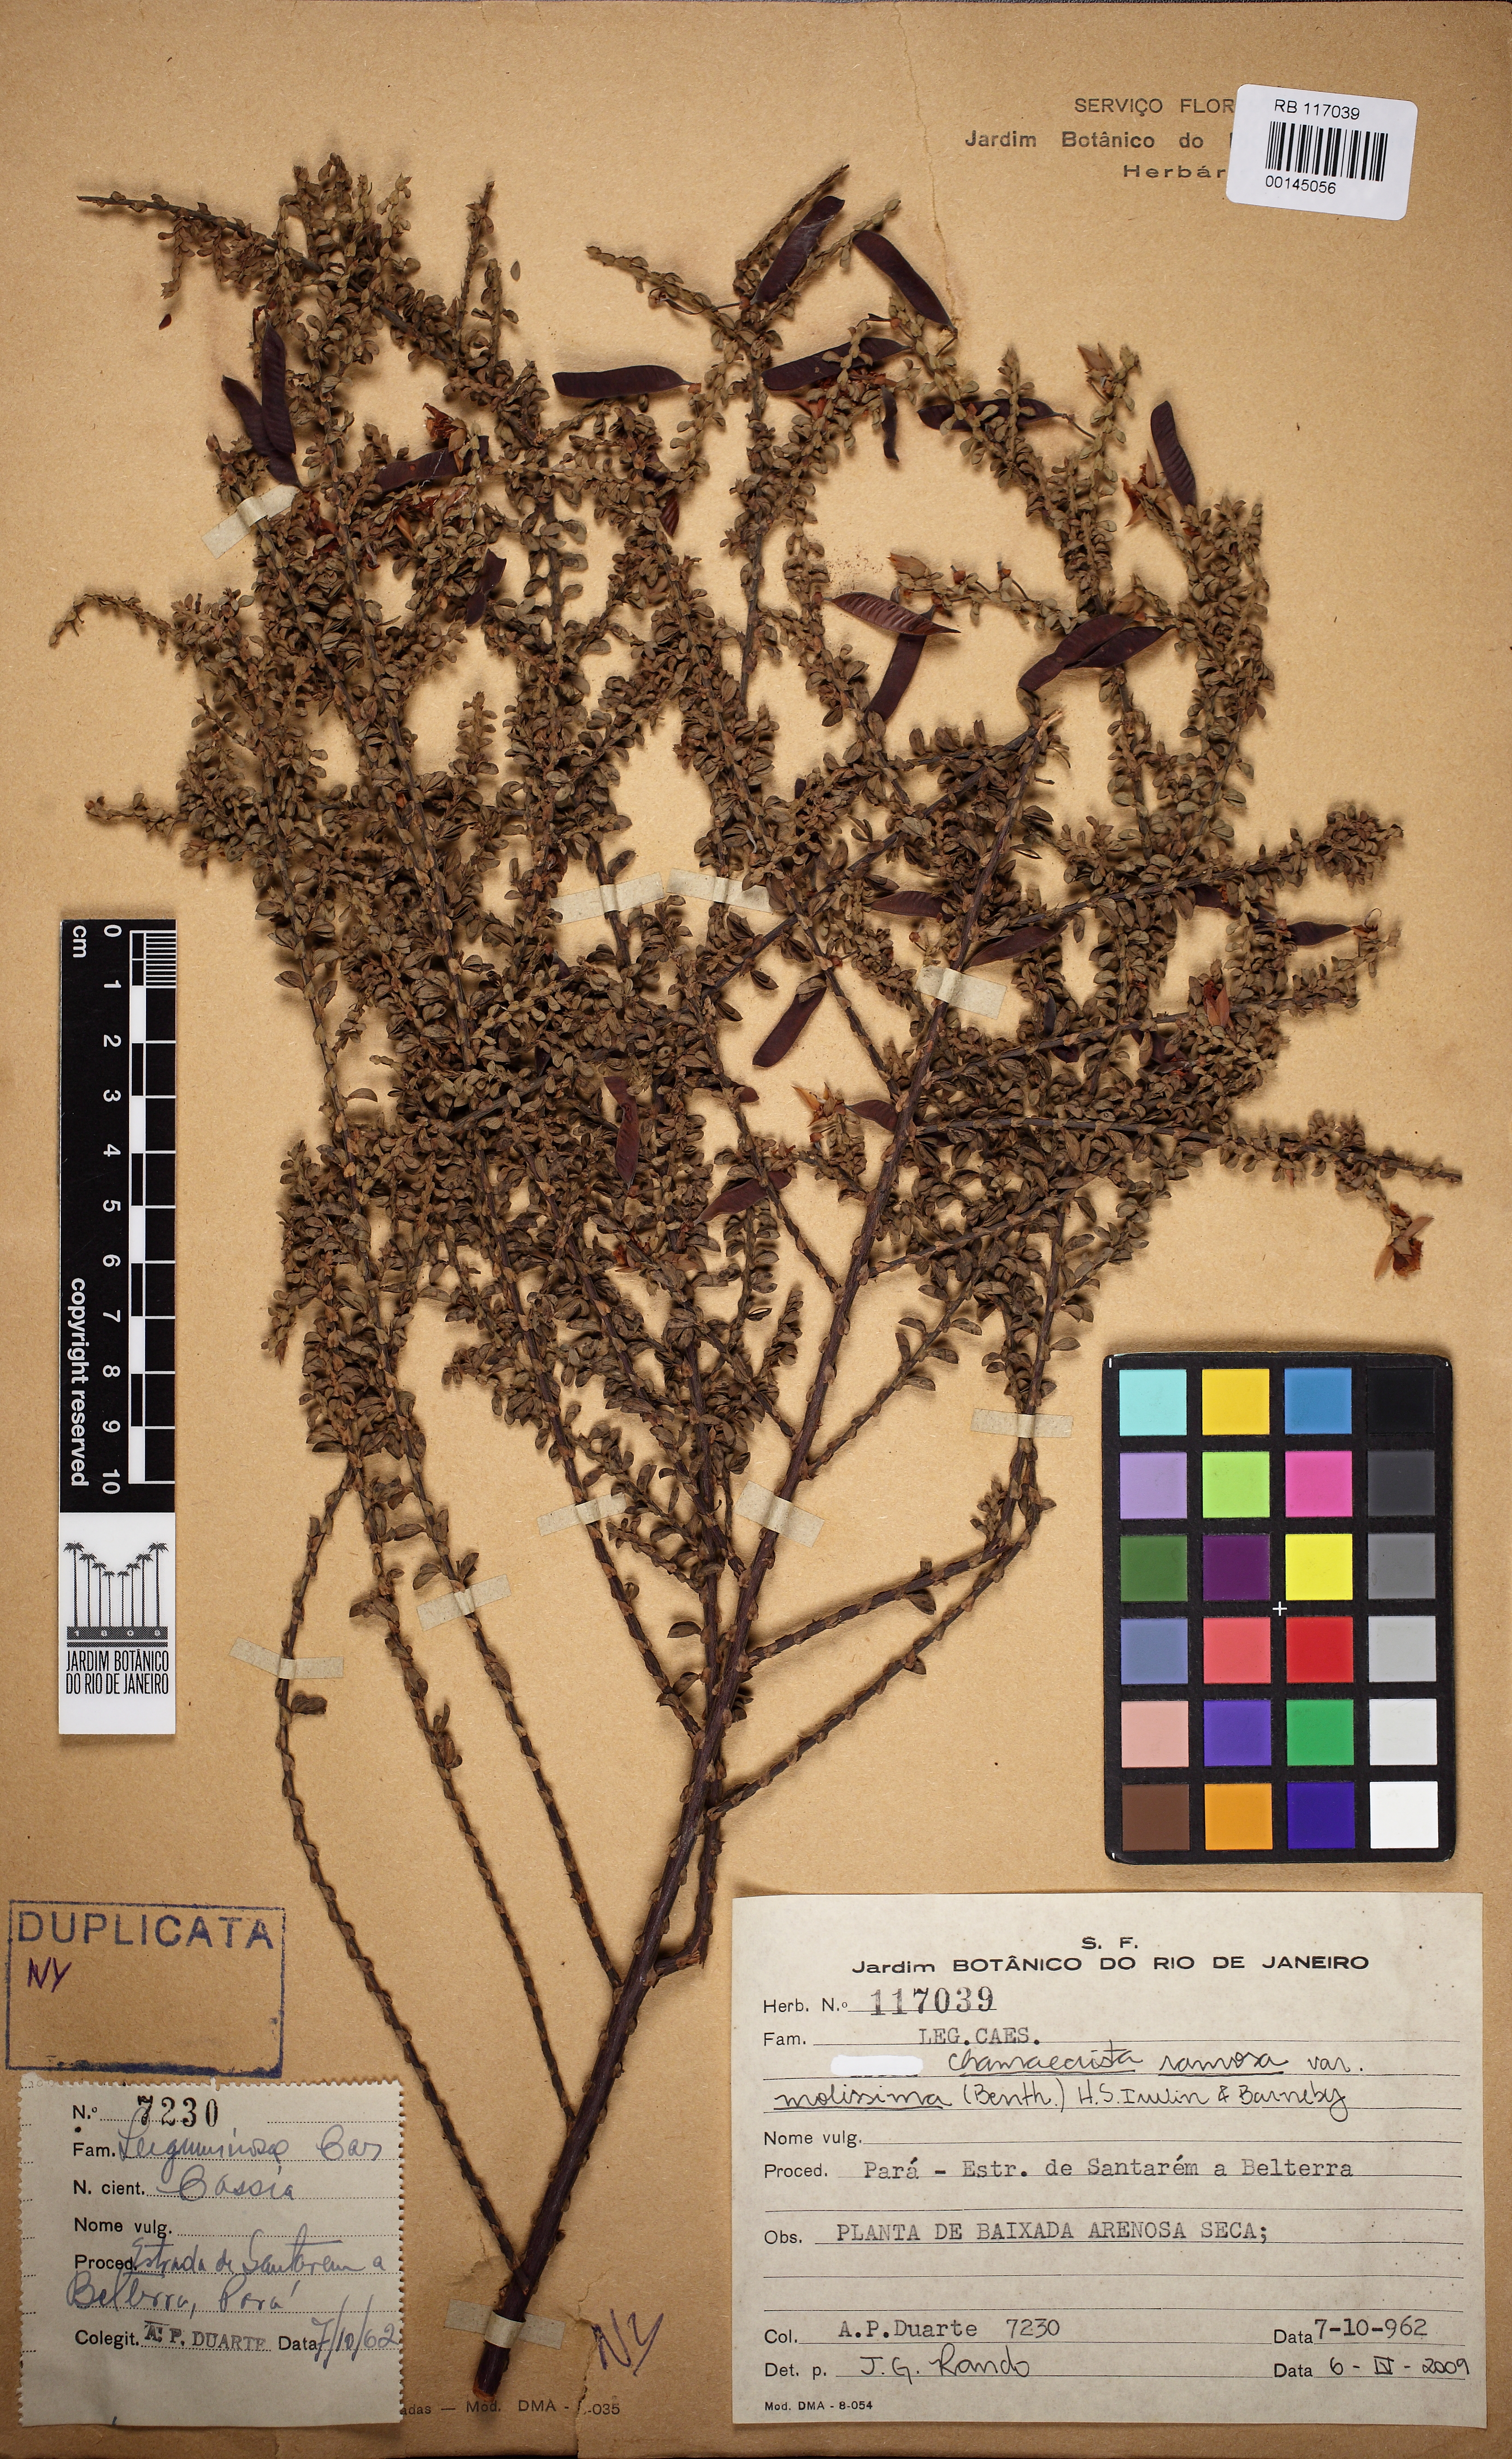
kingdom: Plantae
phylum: Tracheophyta
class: Magnoliopsida
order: Fabales
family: Fabaceae
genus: Chamaecrista
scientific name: Chamaecrista ramosa
